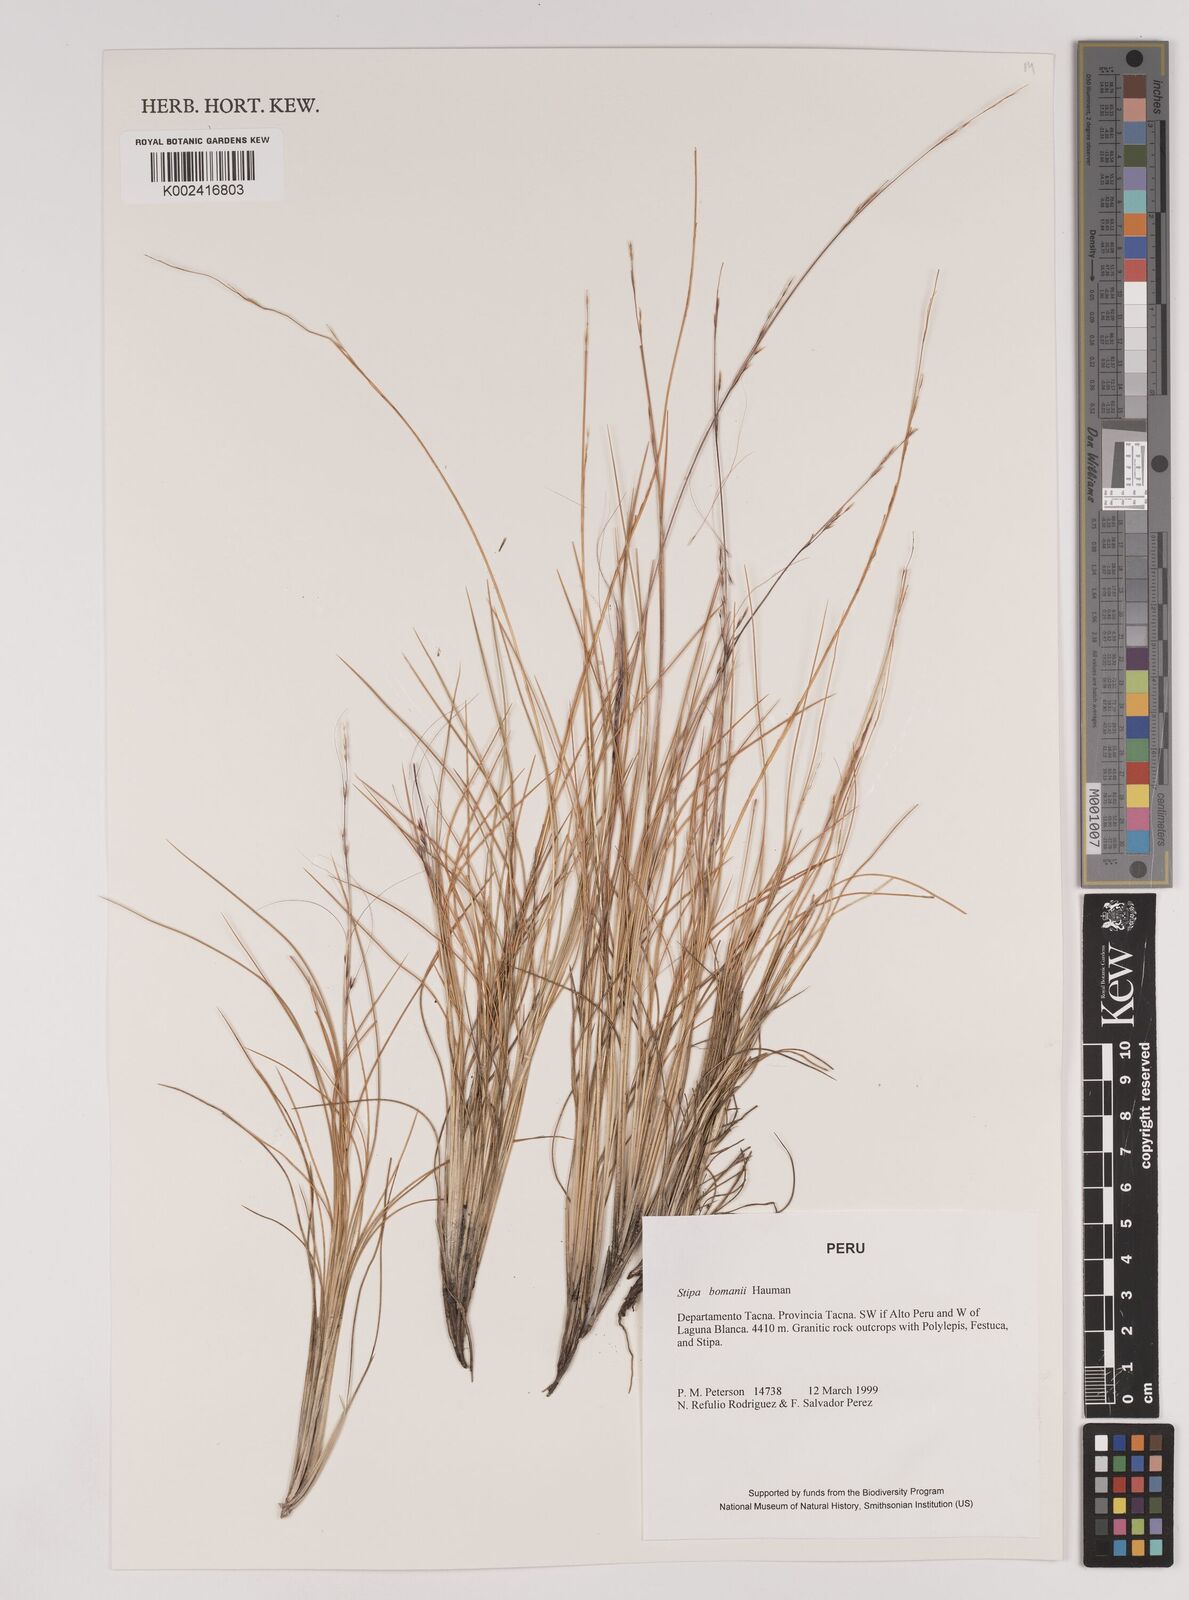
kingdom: Plantae
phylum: Tracheophyta
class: Liliopsida
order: Poales
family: Poaceae
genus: Stipa
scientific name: Stipa bomanii
